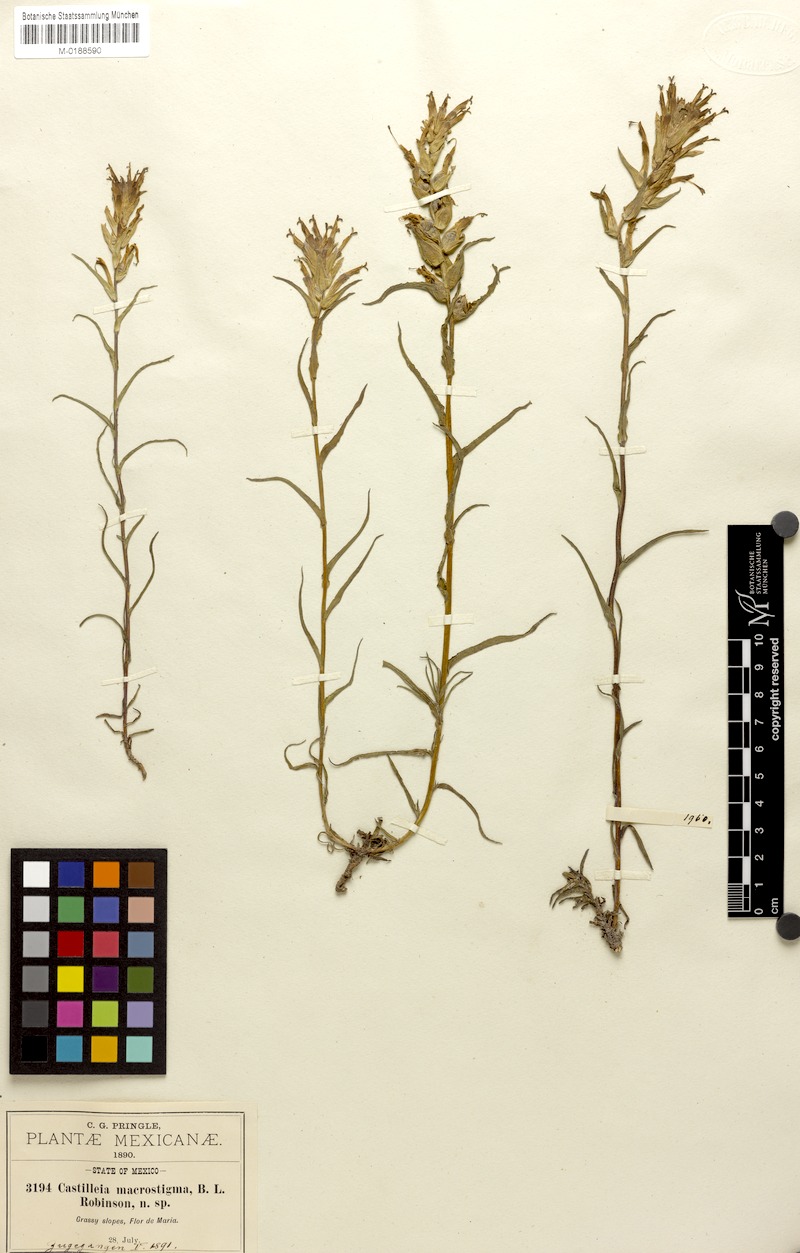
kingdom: Plantae
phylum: Tracheophyta
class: Magnoliopsida
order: Lamiales
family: Orobanchaceae
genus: Castilleja
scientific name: Castilleja macrostigma
